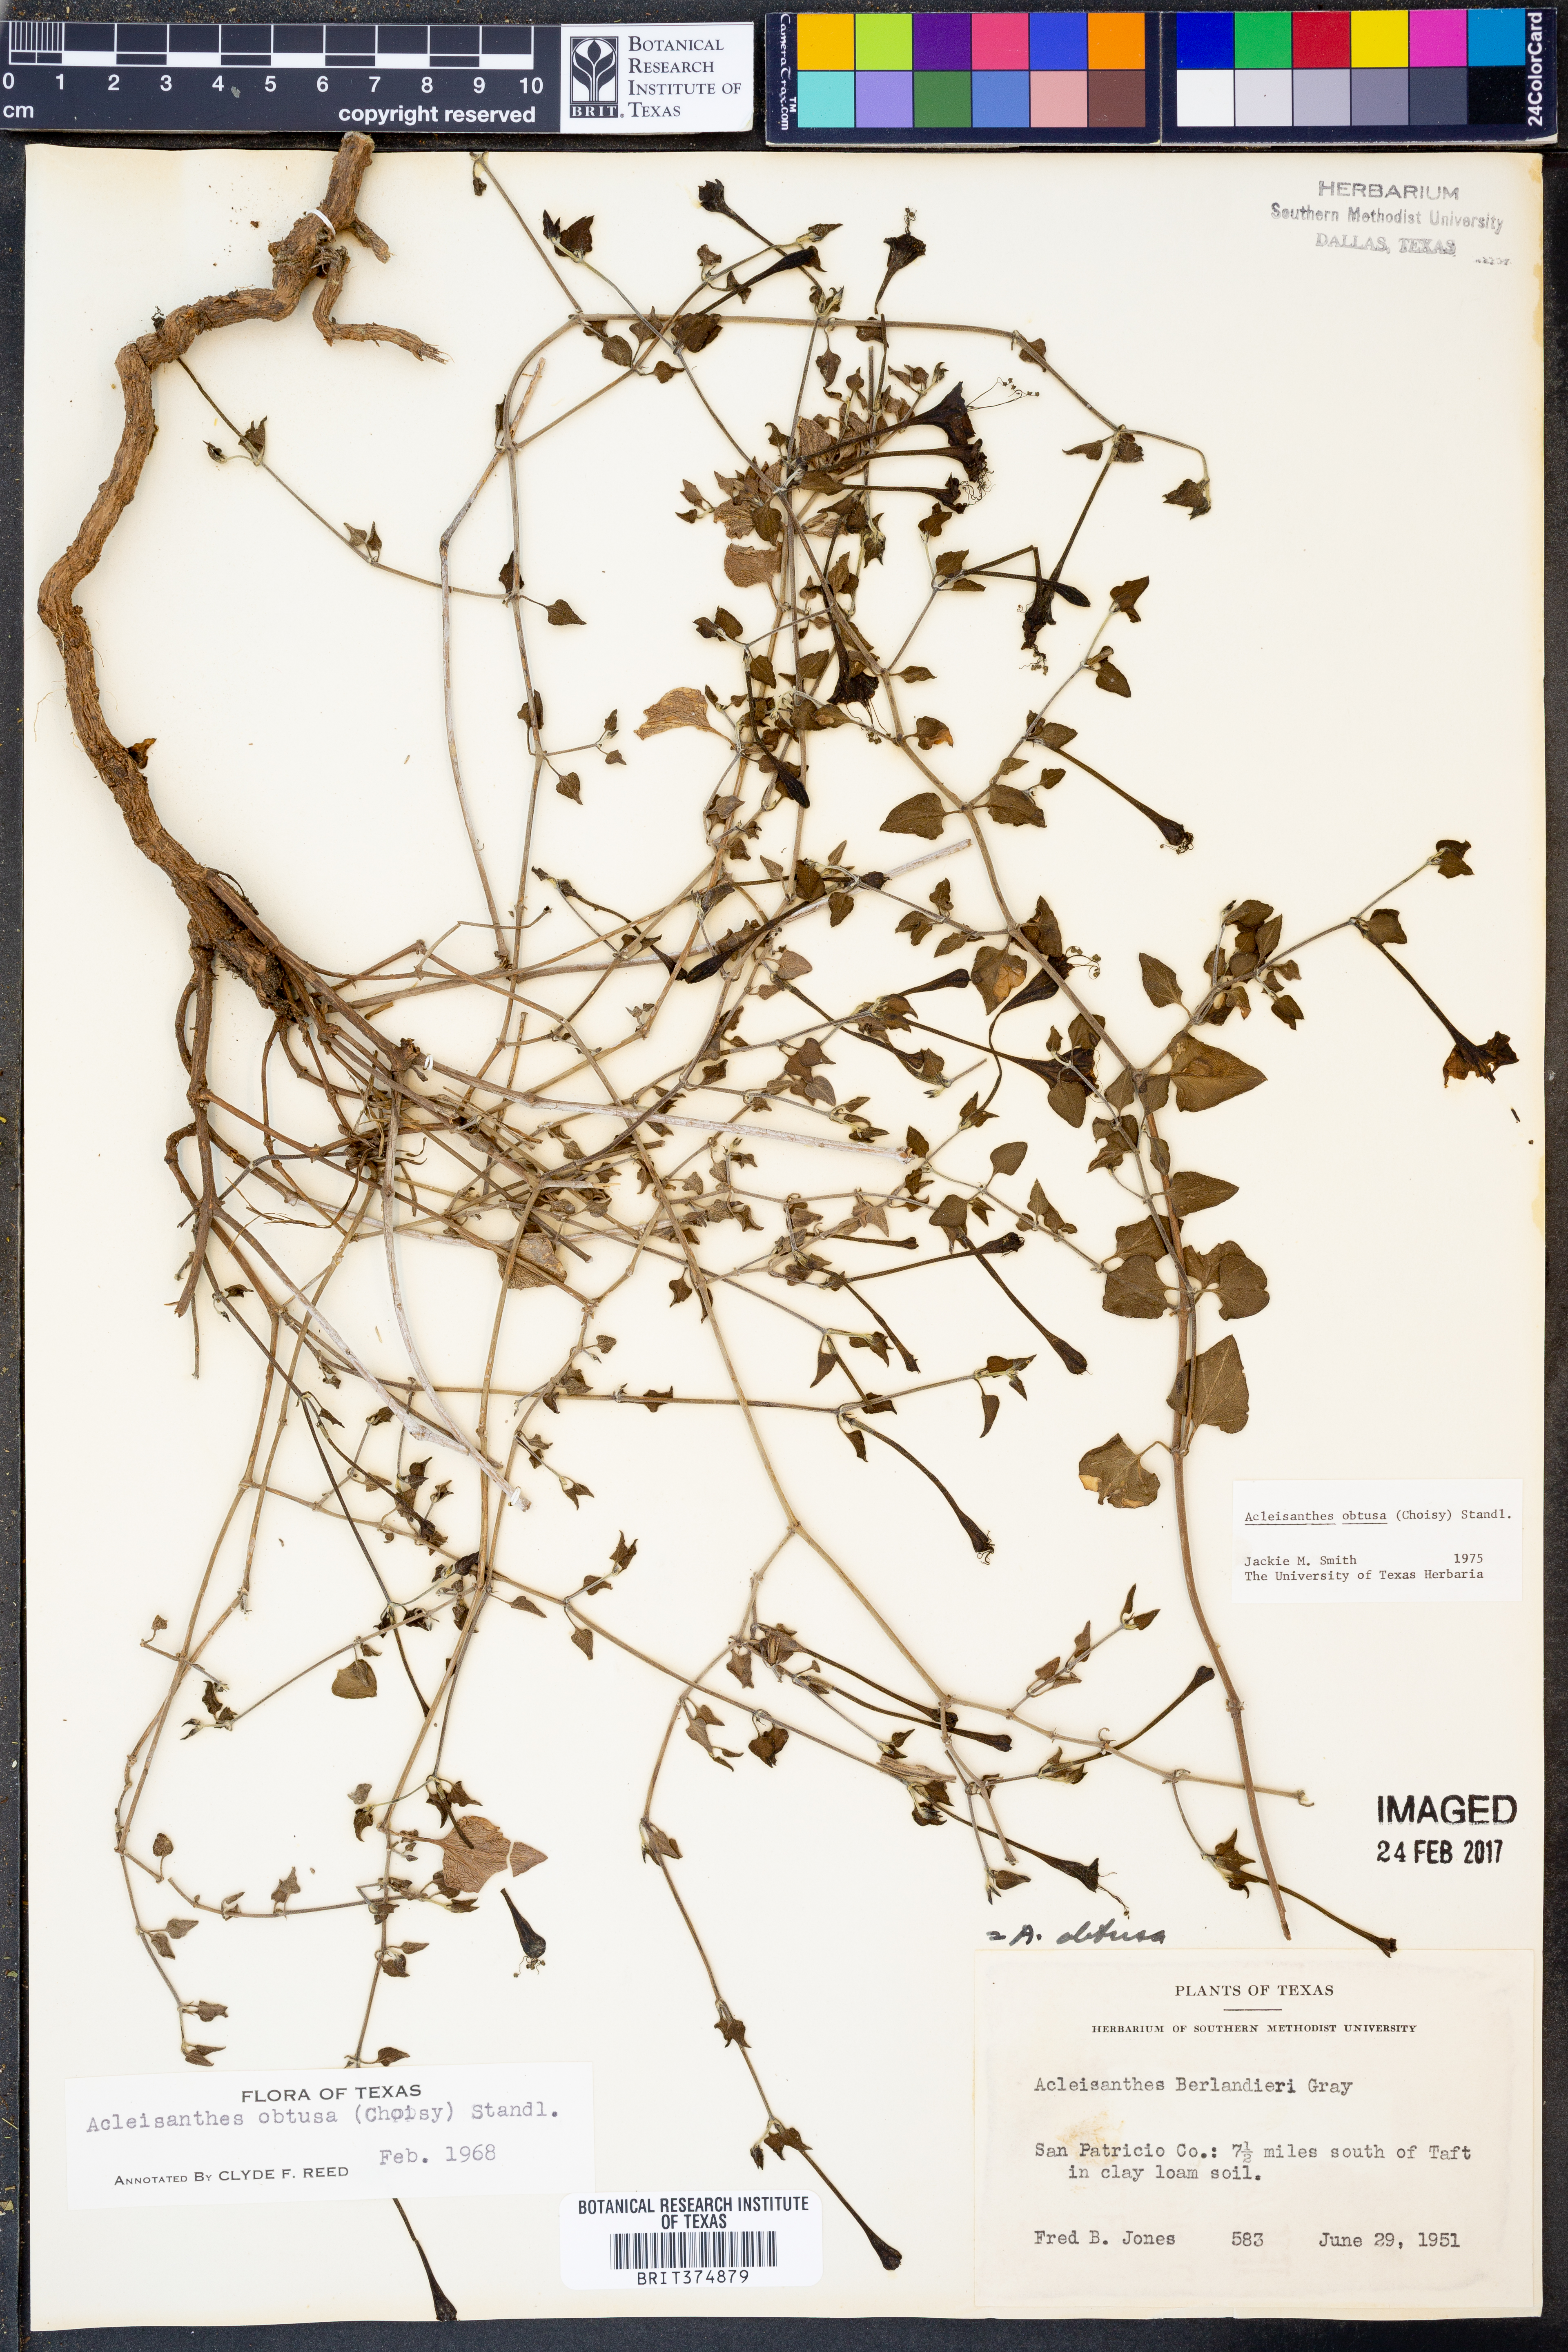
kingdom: Plantae
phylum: Tracheophyta
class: Magnoliopsida
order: Caryophyllales
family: Nyctaginaceae
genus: Acleisanthes
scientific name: Acleisanthes obtusa
